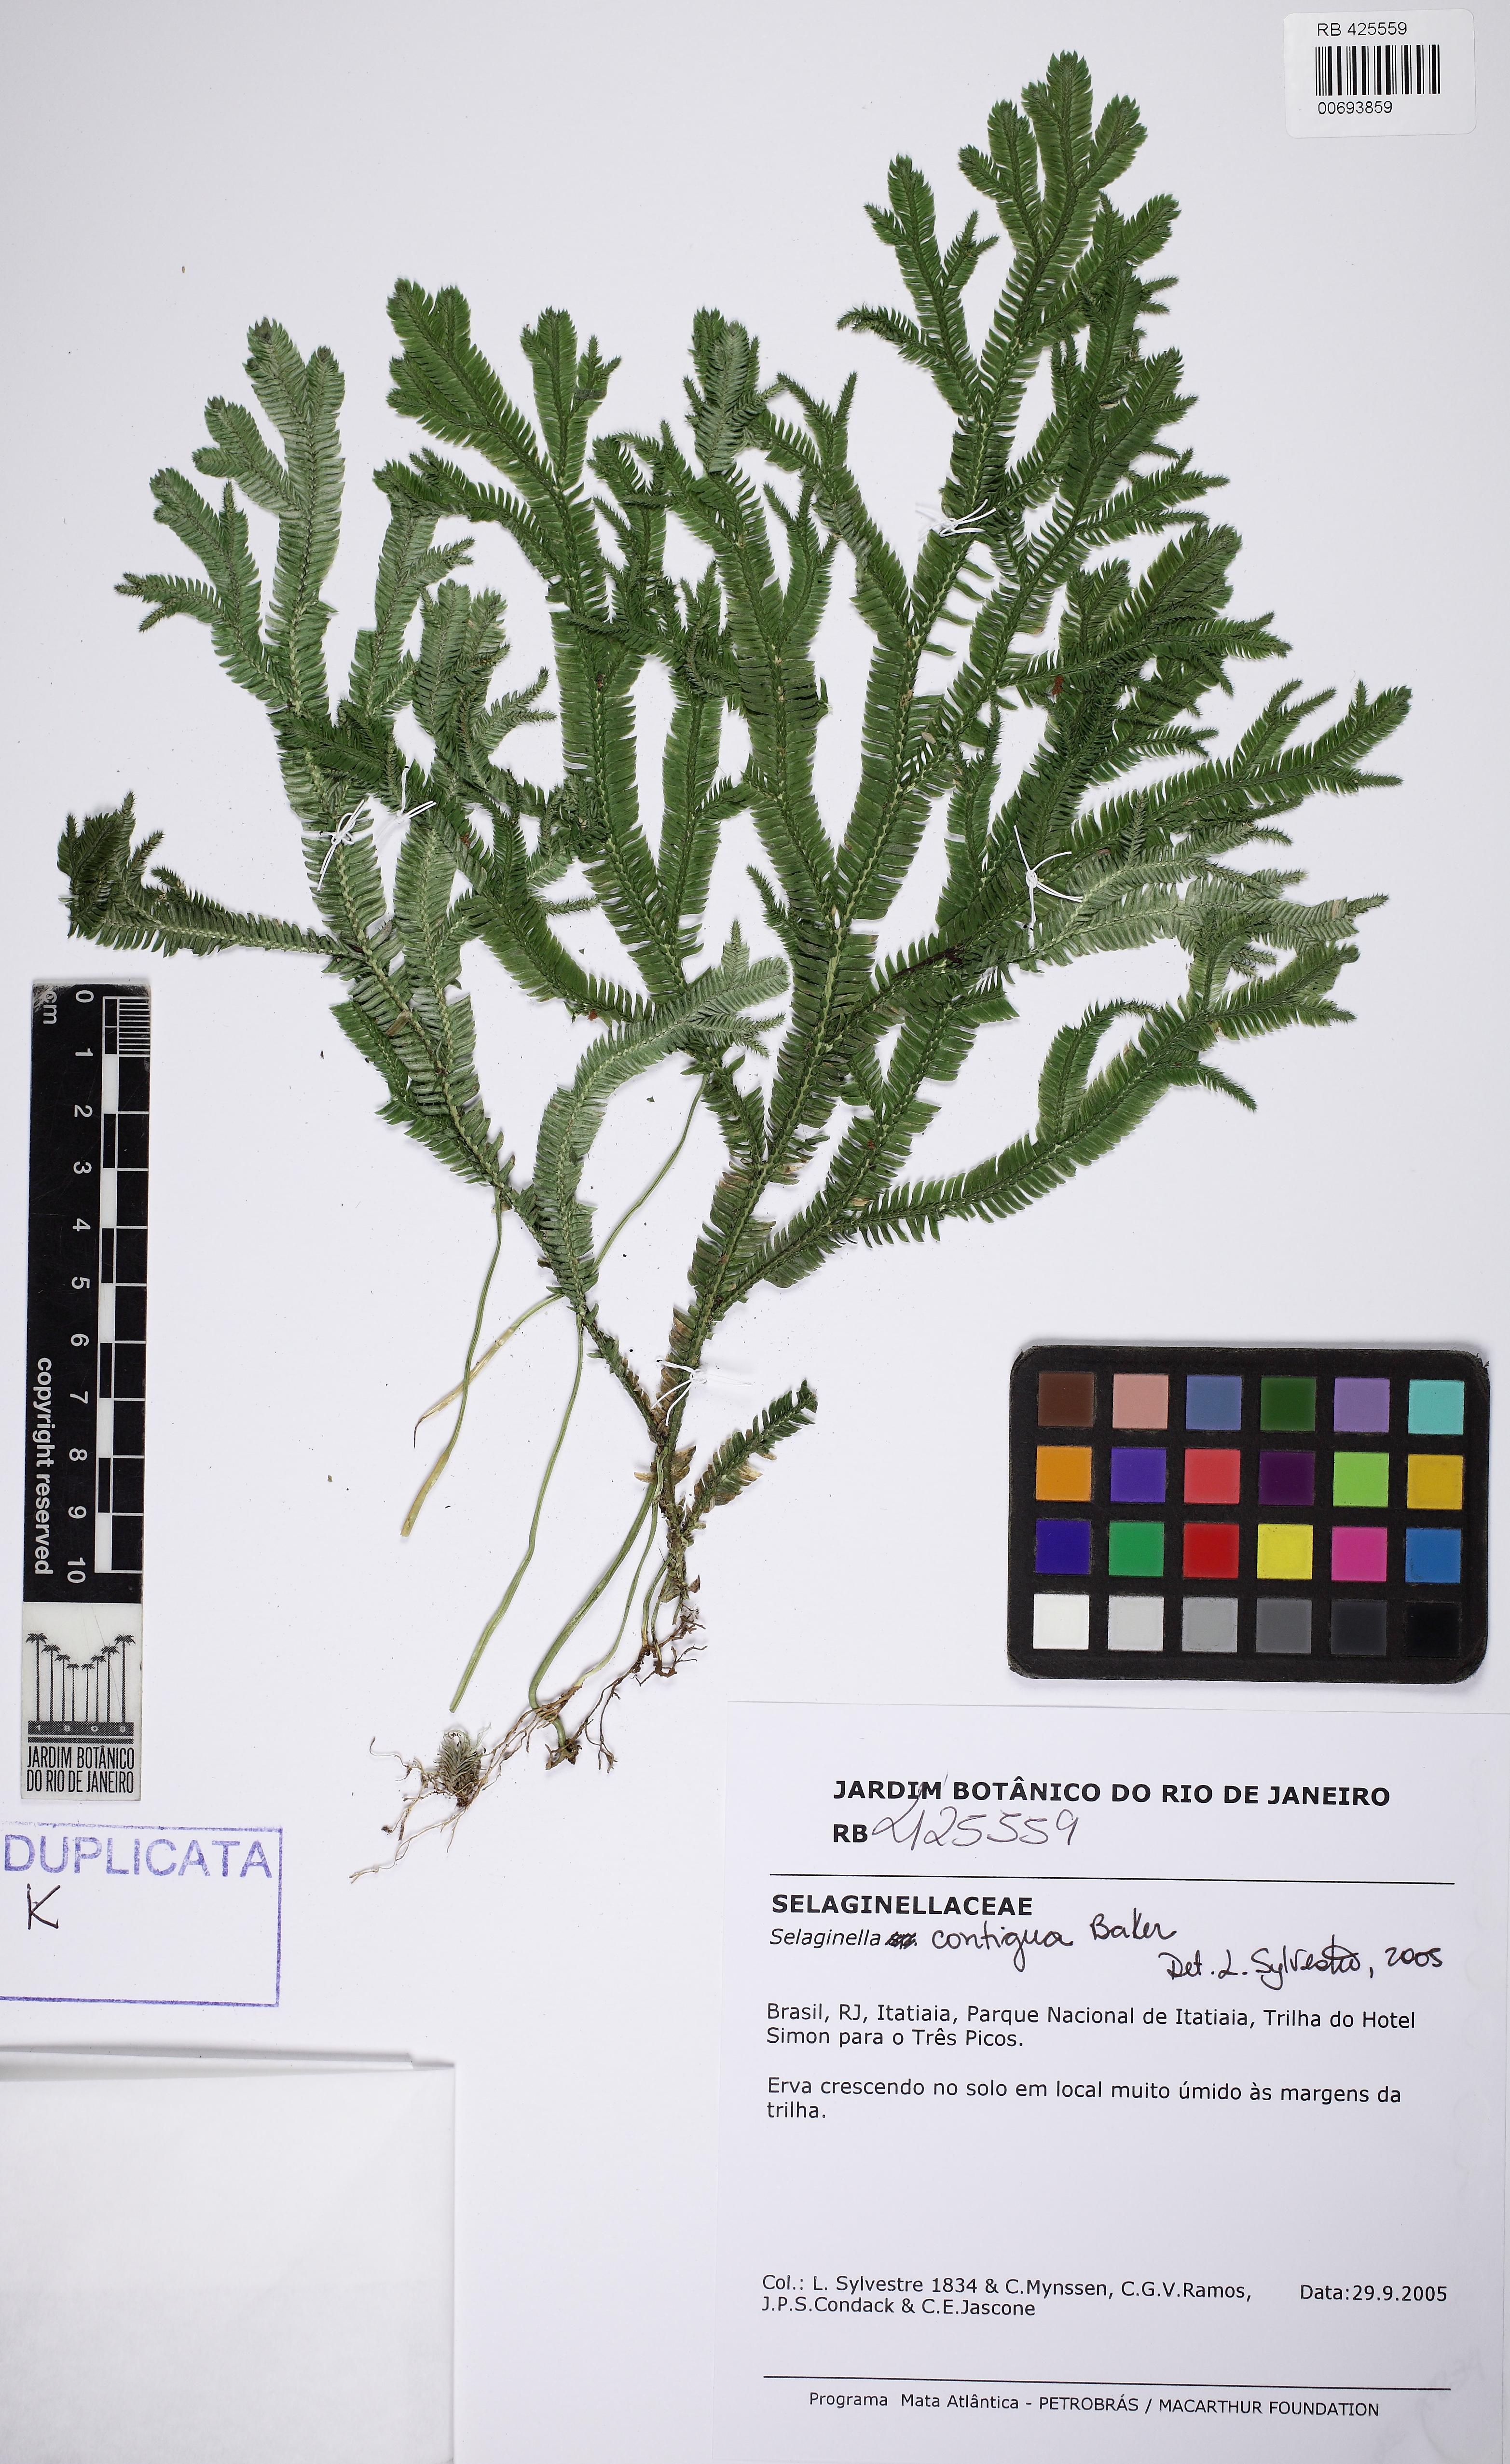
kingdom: Plantae
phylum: Tracheophyta
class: Lycopodiopsida
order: Selaginellales
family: Selaginellaceae
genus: Selaginella
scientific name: Selaginella contigua
